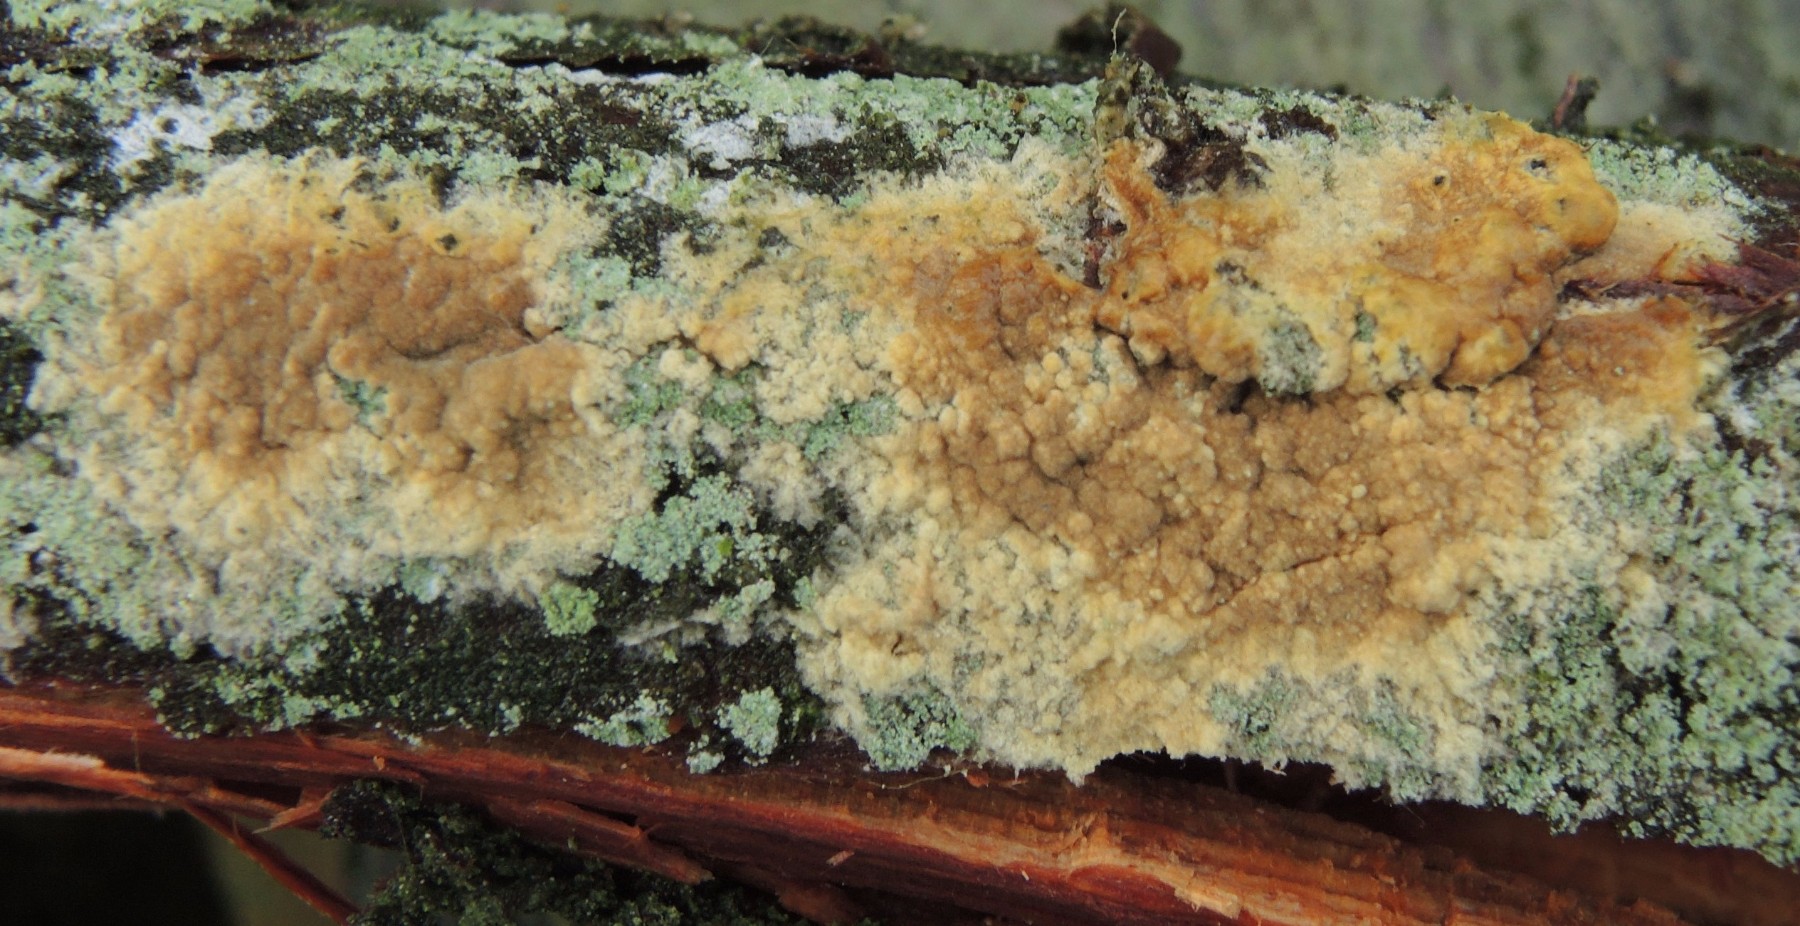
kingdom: Fungi
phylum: Basidiomycota
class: Agaricomycetes
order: Boletales
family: Coniophoraceae
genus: Coniophora
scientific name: Coniophora arida
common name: tynd tømmersvamp
